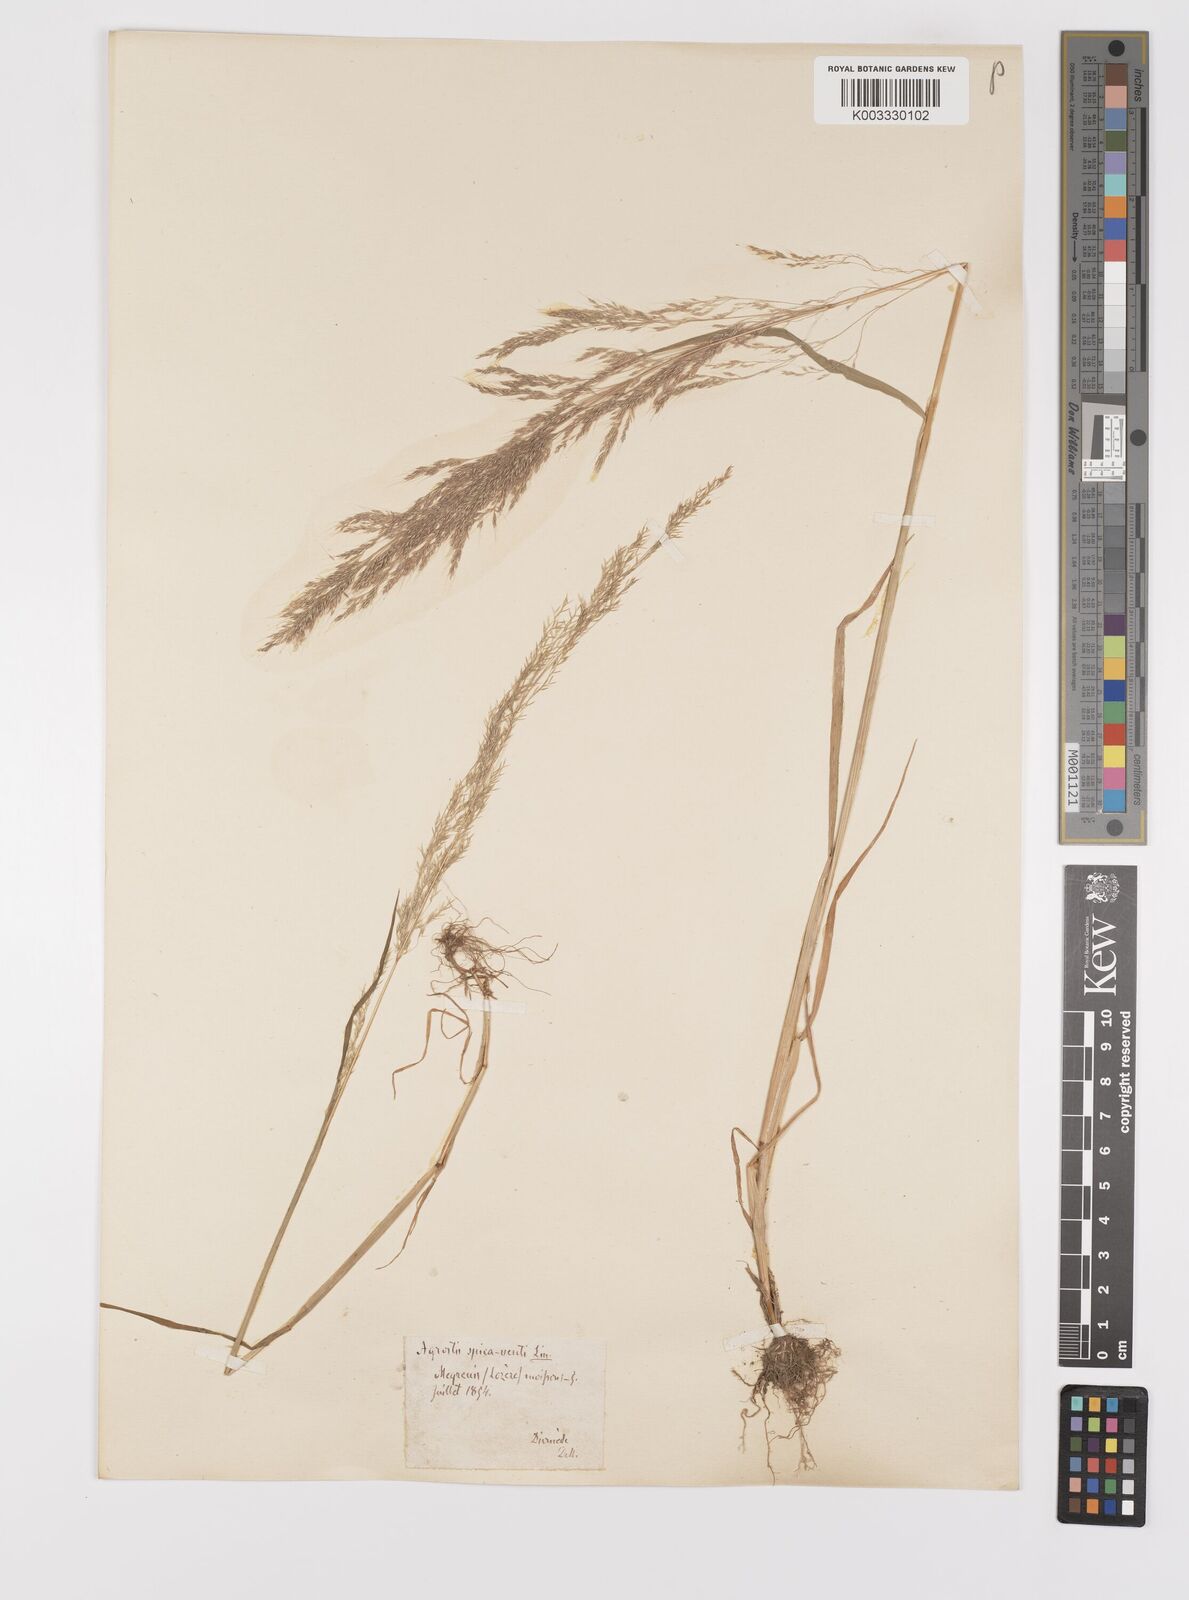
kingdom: Plantae
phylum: Tracheophyta
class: Liliopsida
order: Poales
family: Poaceae
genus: Apera
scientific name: Apera spica-venti
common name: Loose silky-bent
